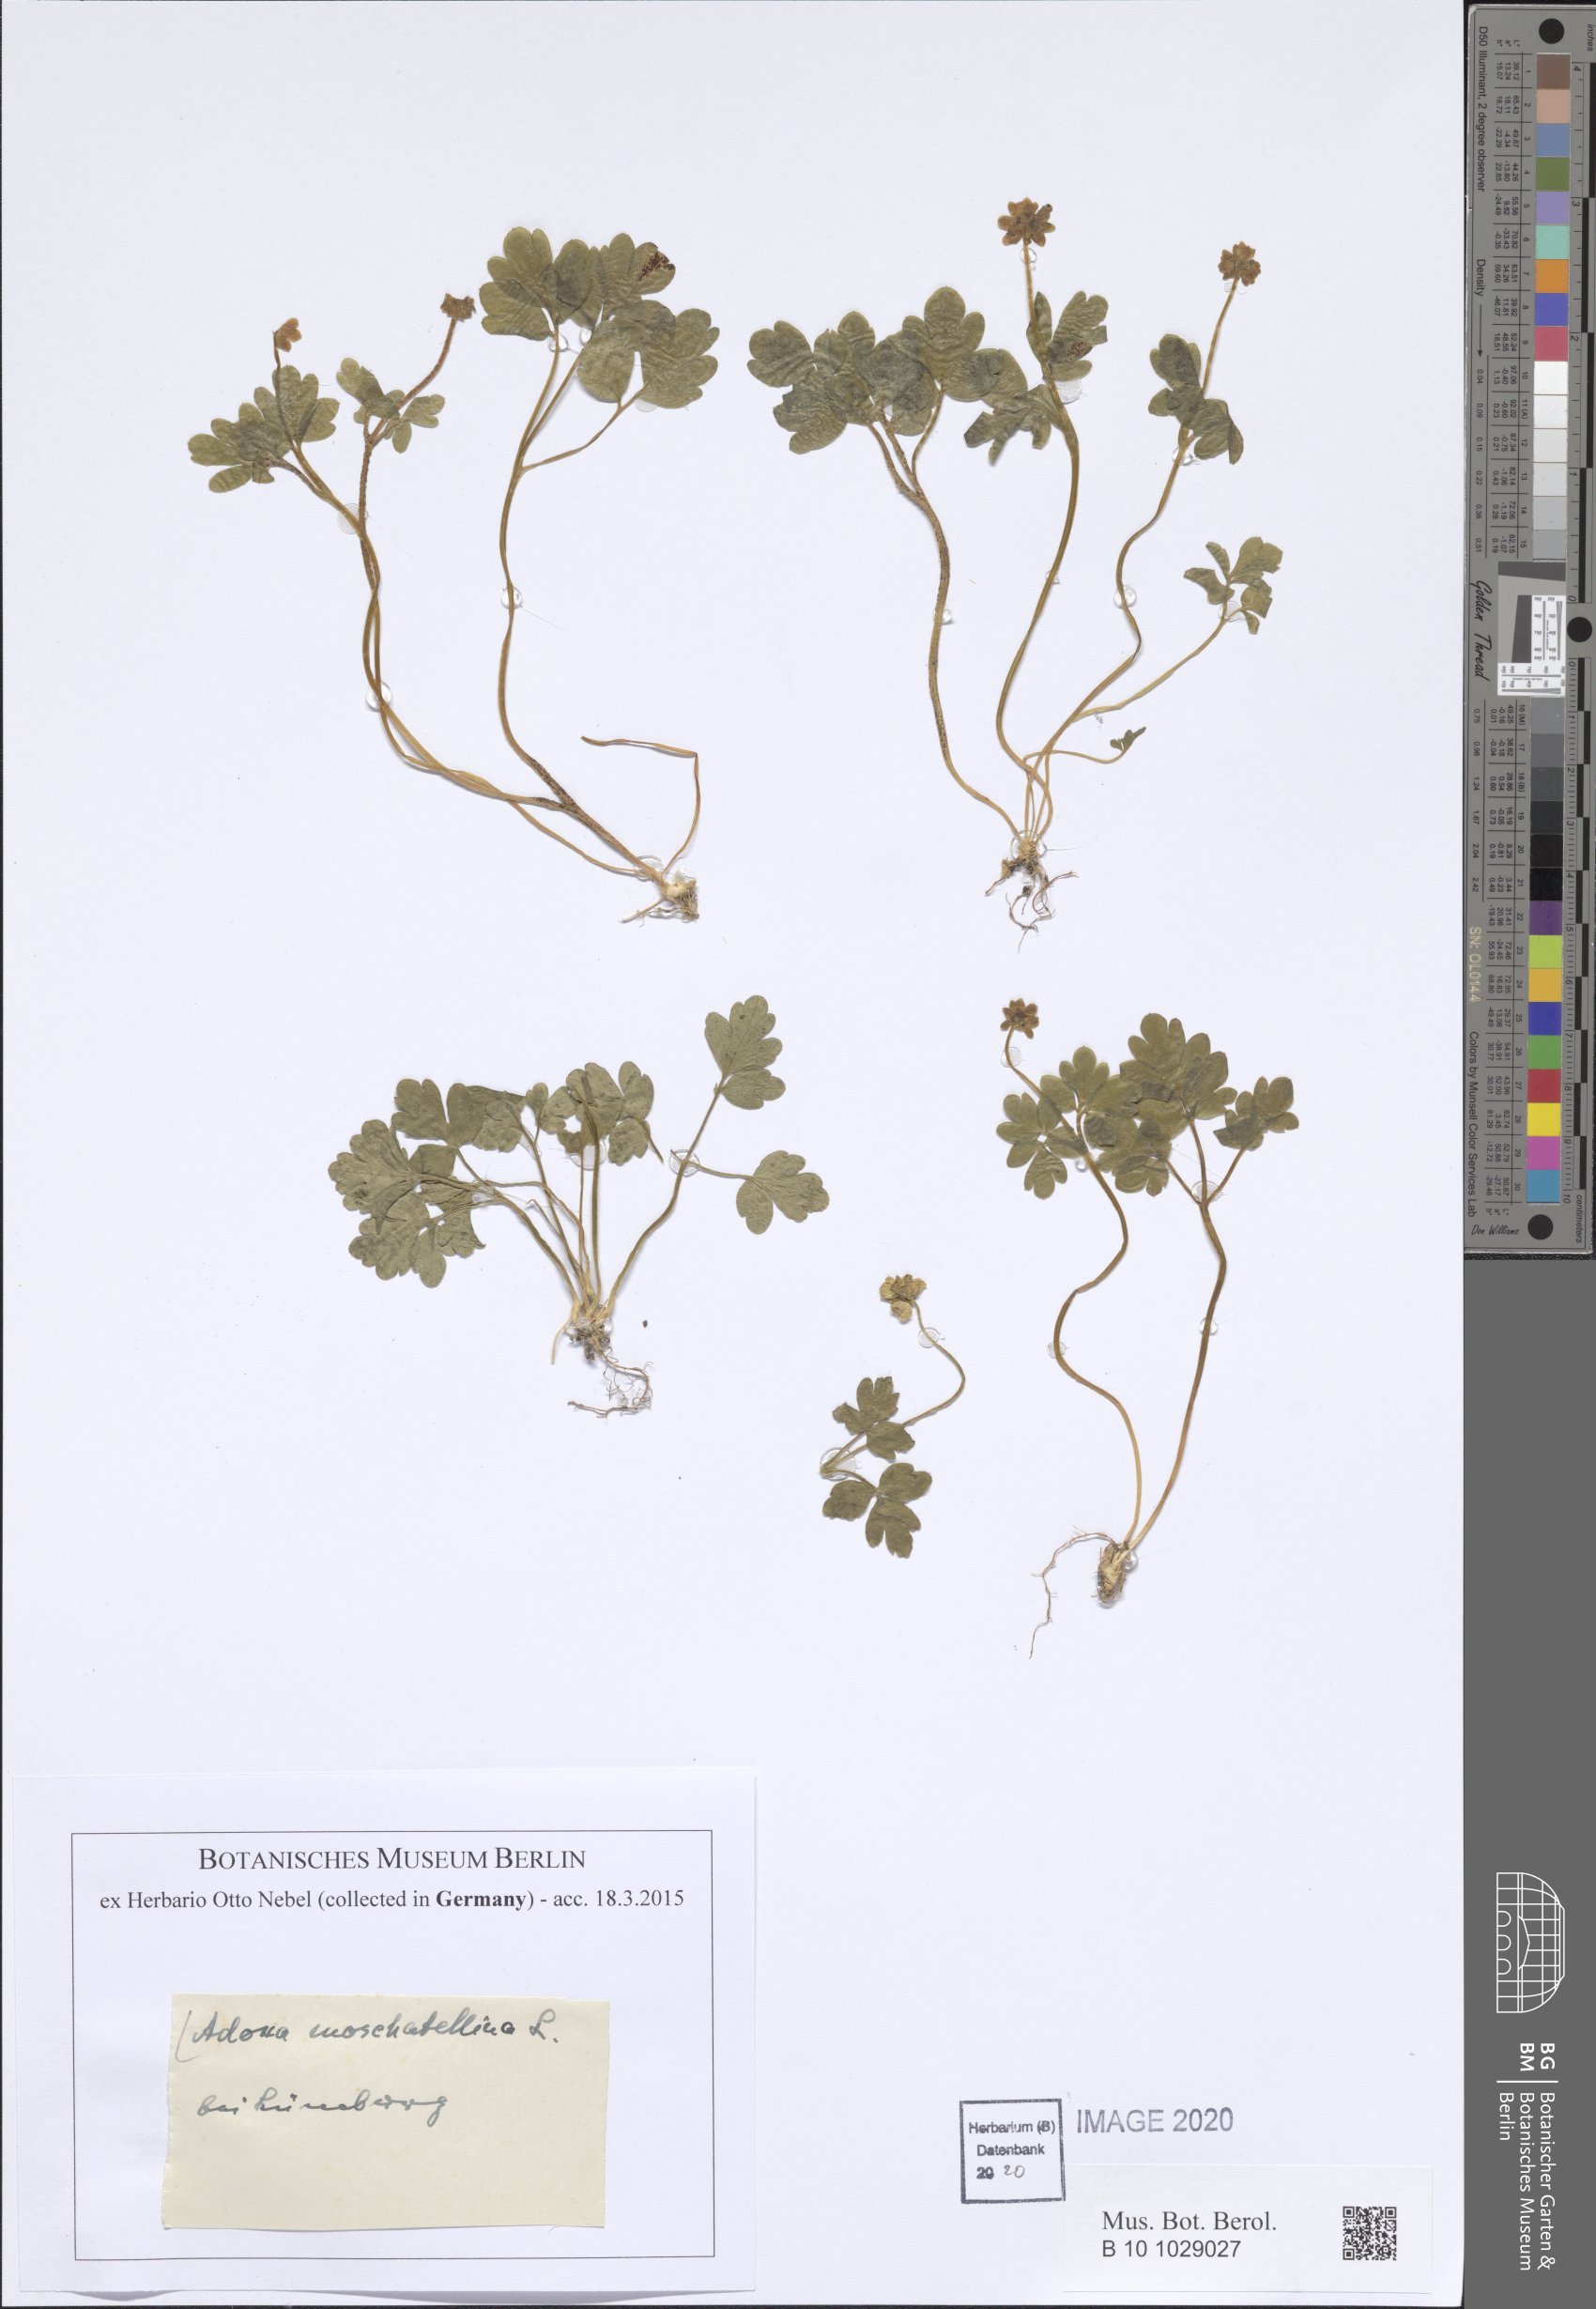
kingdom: Plantae
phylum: Tracheophyta
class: Magnoliopsida
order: Dipsacales
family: Viburnaceae
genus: Adoxa
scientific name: Adoxa moschatellina
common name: Moschatel
